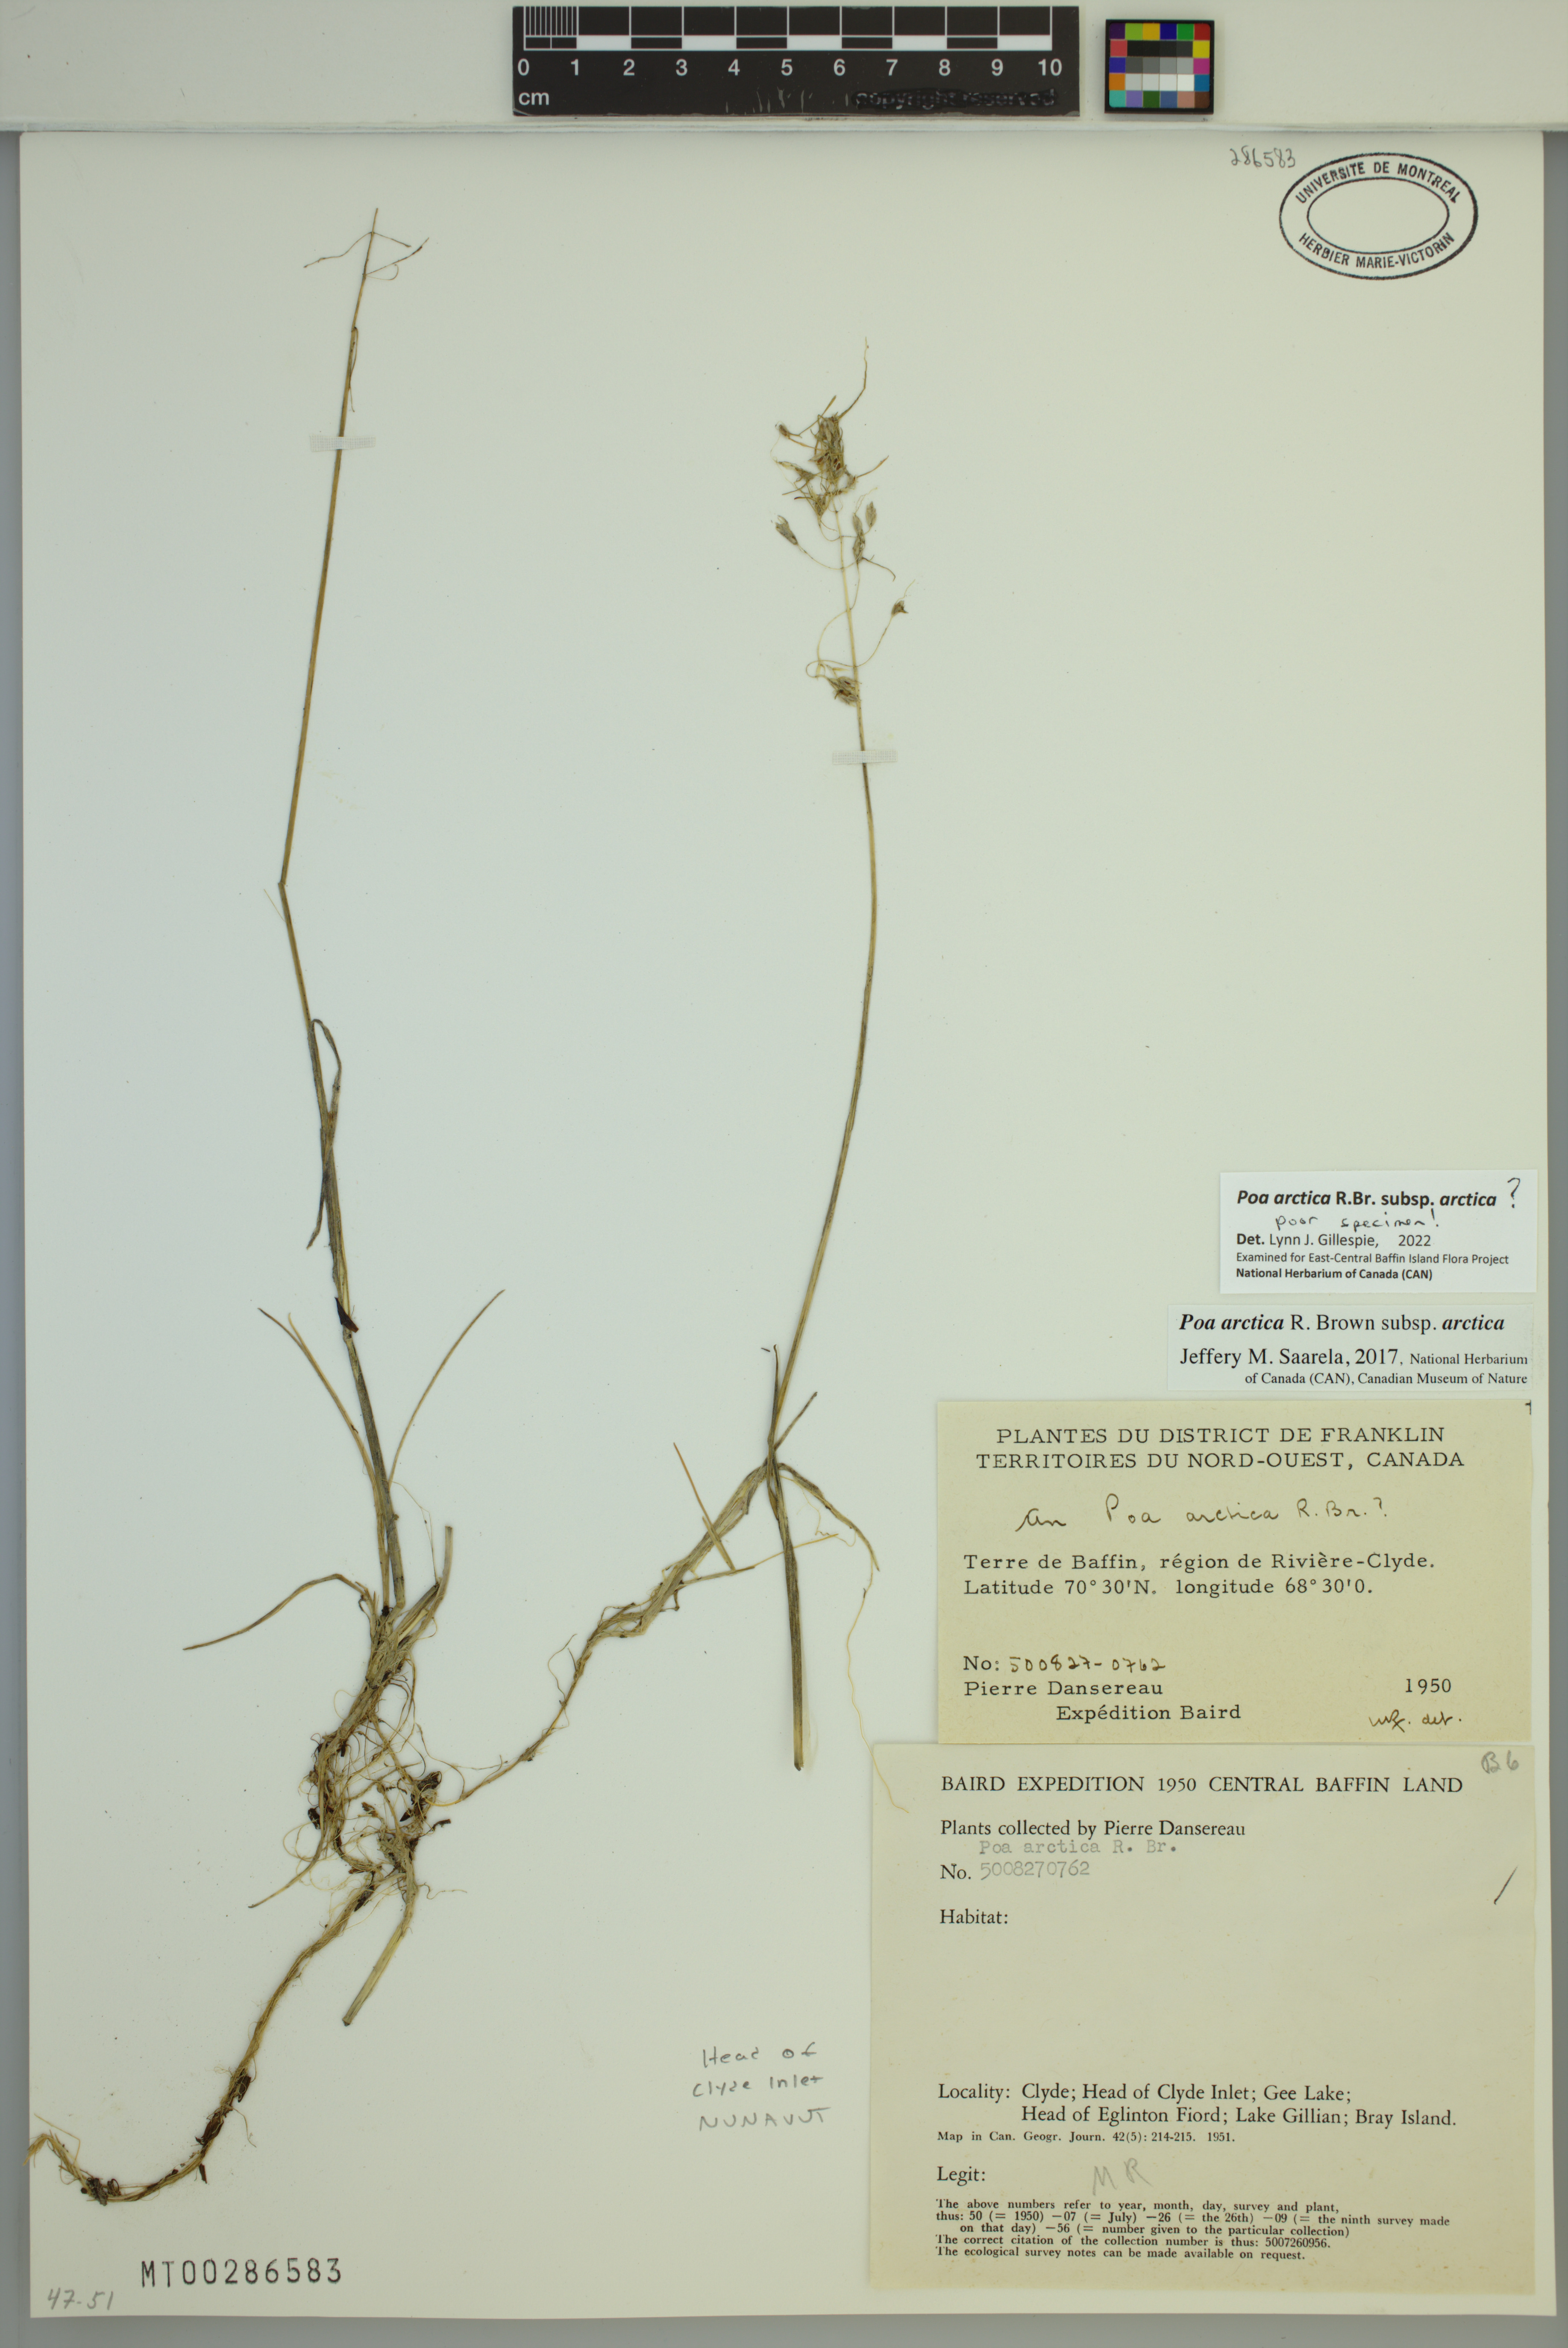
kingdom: Plantae
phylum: Tracheophyta
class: Liliopsida
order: Poales
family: Poaceae
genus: Poa
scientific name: Poa arctica
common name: Arctic bluegrass
